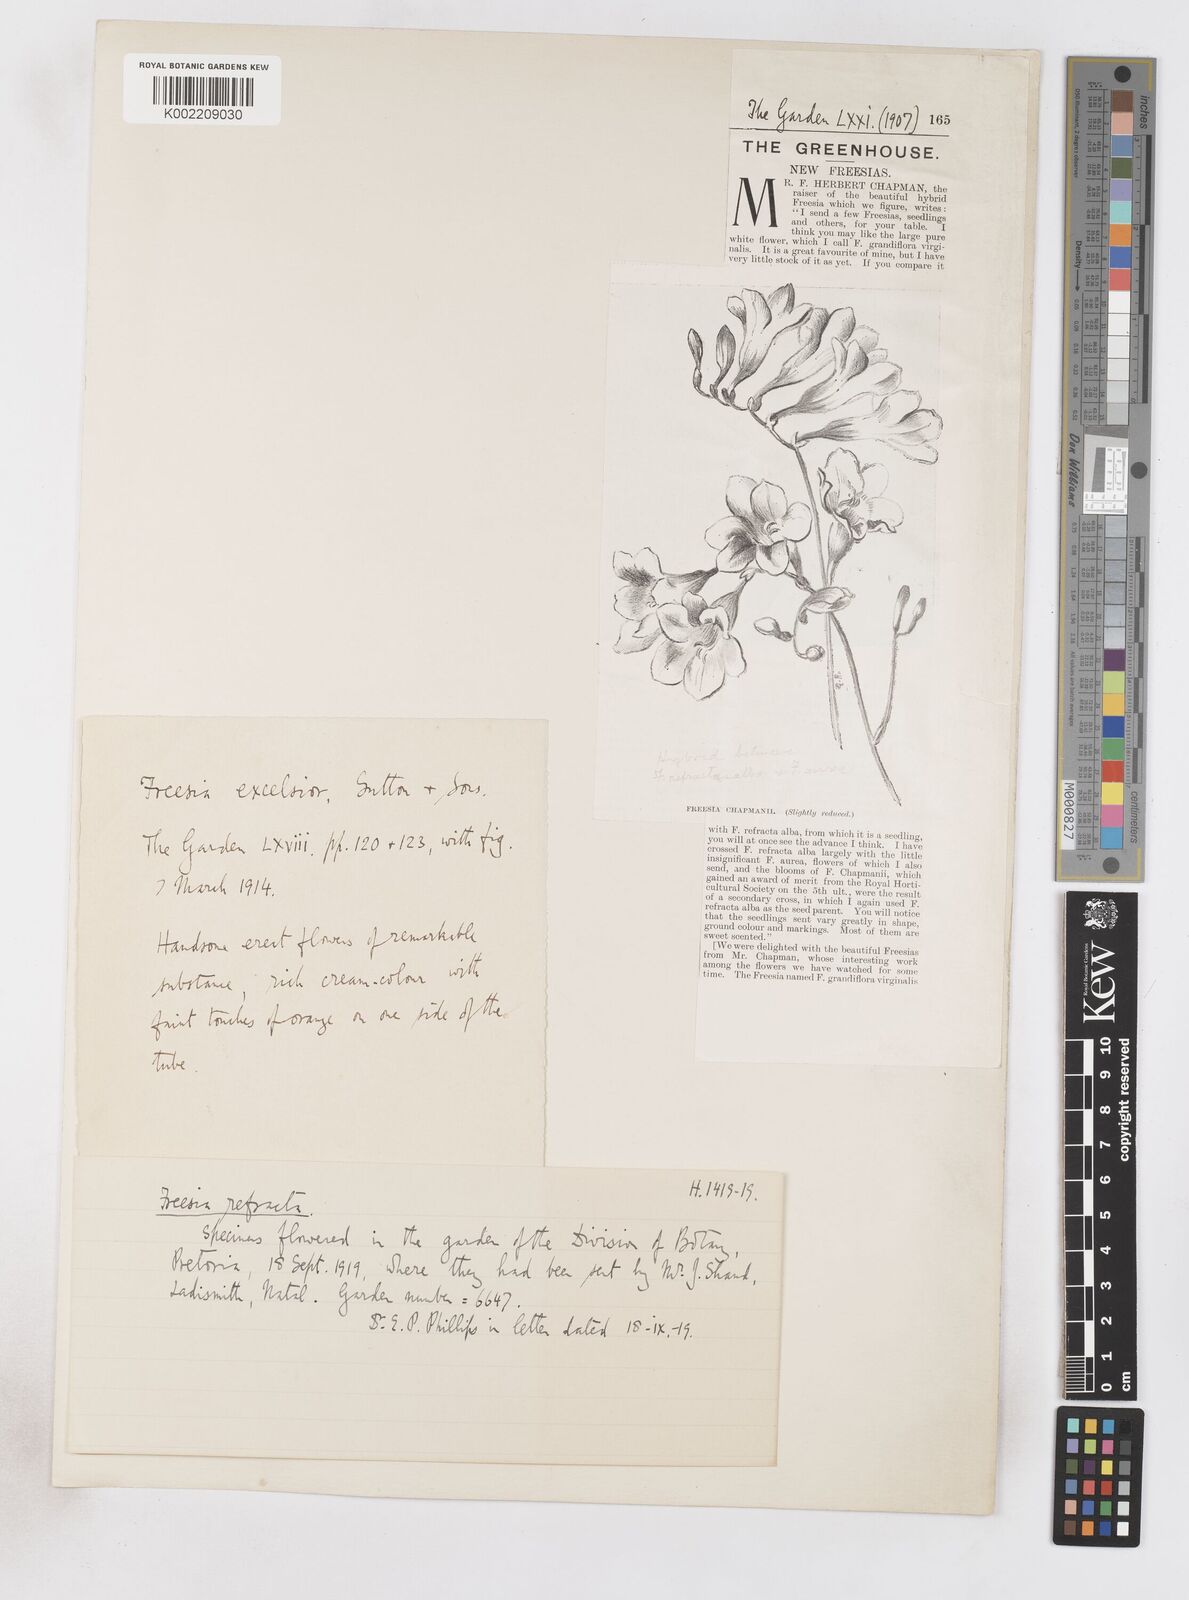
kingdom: Plantae
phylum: Tracheophyta
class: Liliopsida
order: Asparagales
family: Iridaceae
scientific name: Iridaceae
